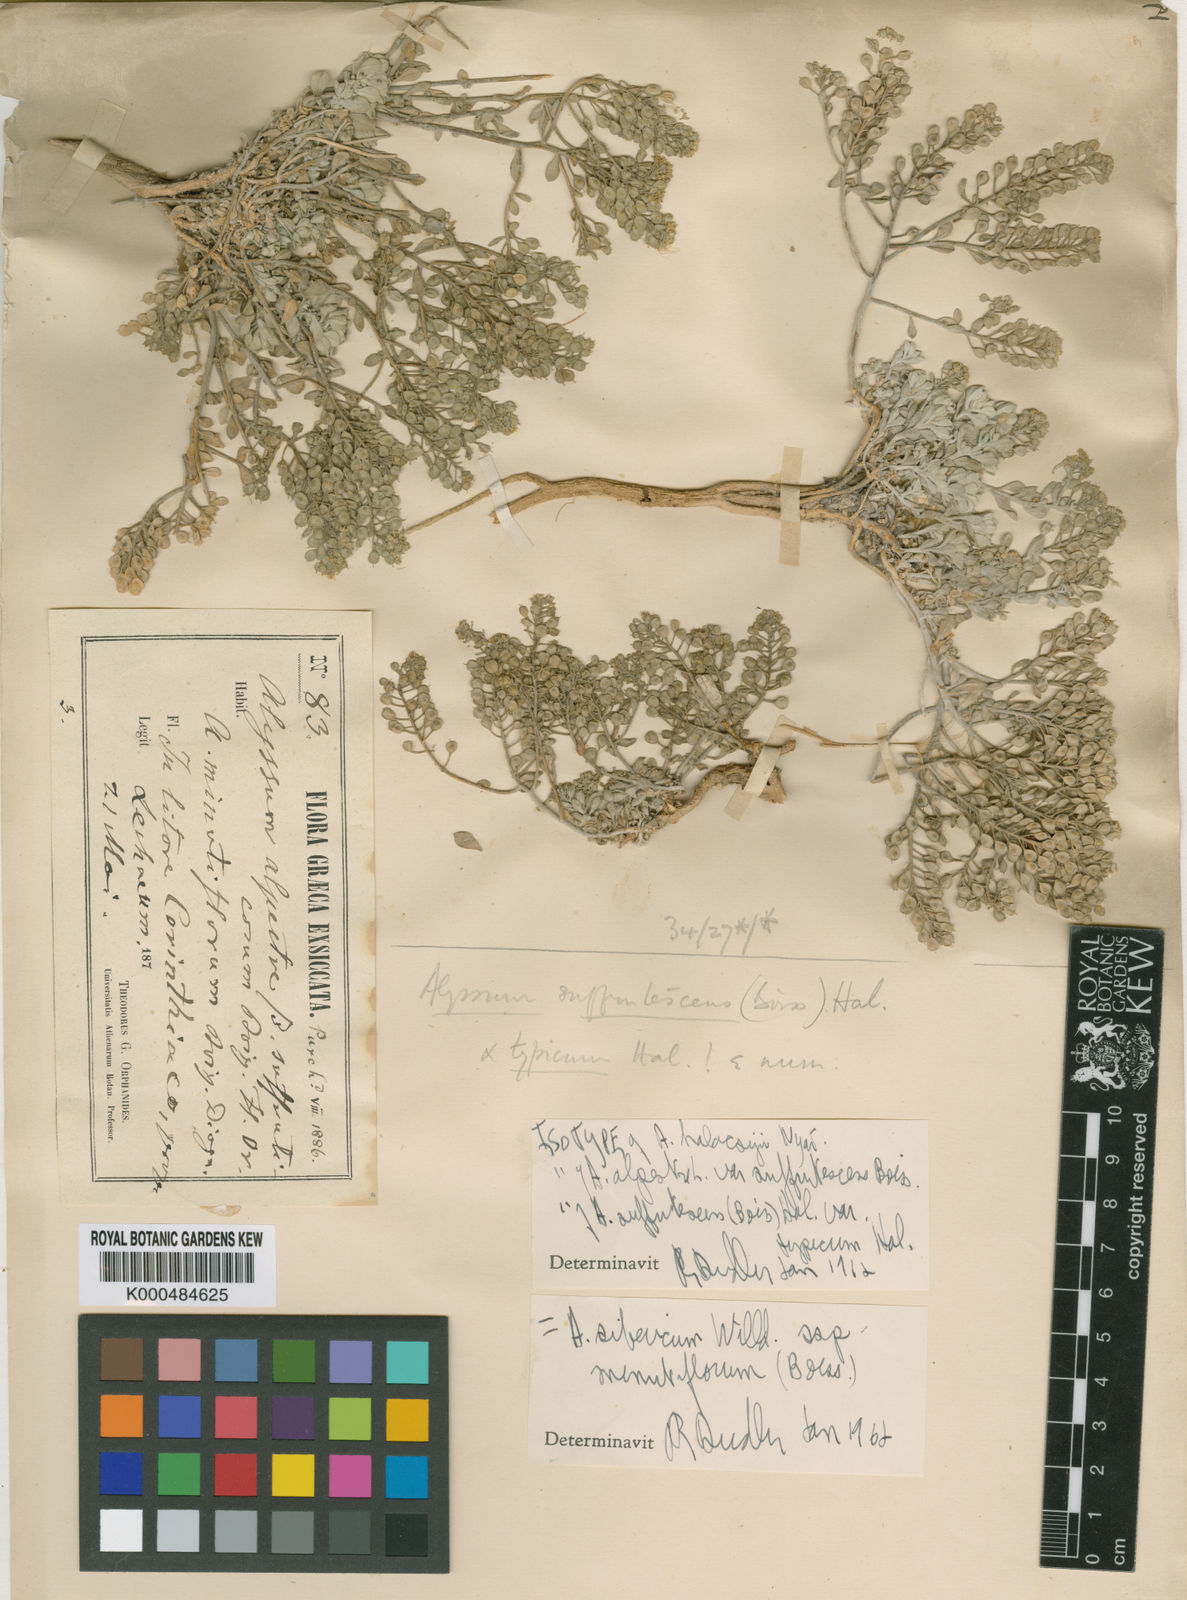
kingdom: Plantae
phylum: Tracheophyta
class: Magnoliopsida
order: Brassicales
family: Brassicaceae
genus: Odontarrhena
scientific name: Odontarrhena sibirica
